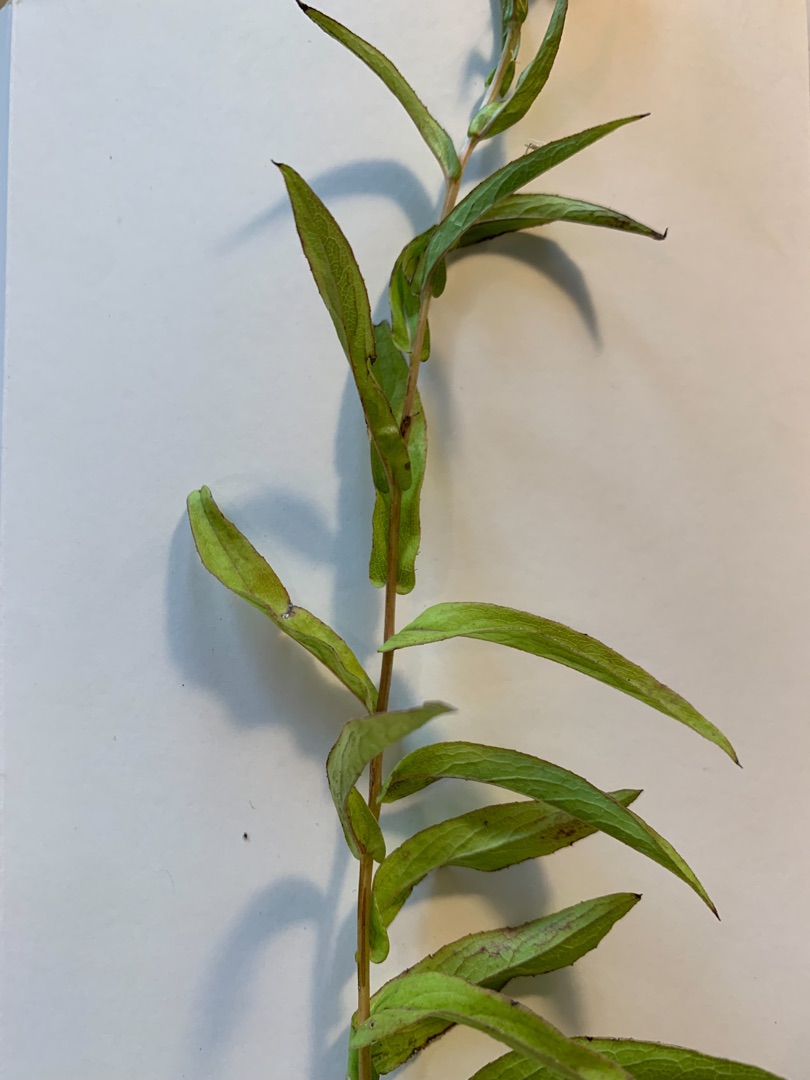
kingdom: Plantae
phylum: Tracheophyta
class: Magnoliopsida
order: Asterales
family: Asteraceae
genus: Pentanema
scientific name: Pentanema salicinum
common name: Pile-alant
